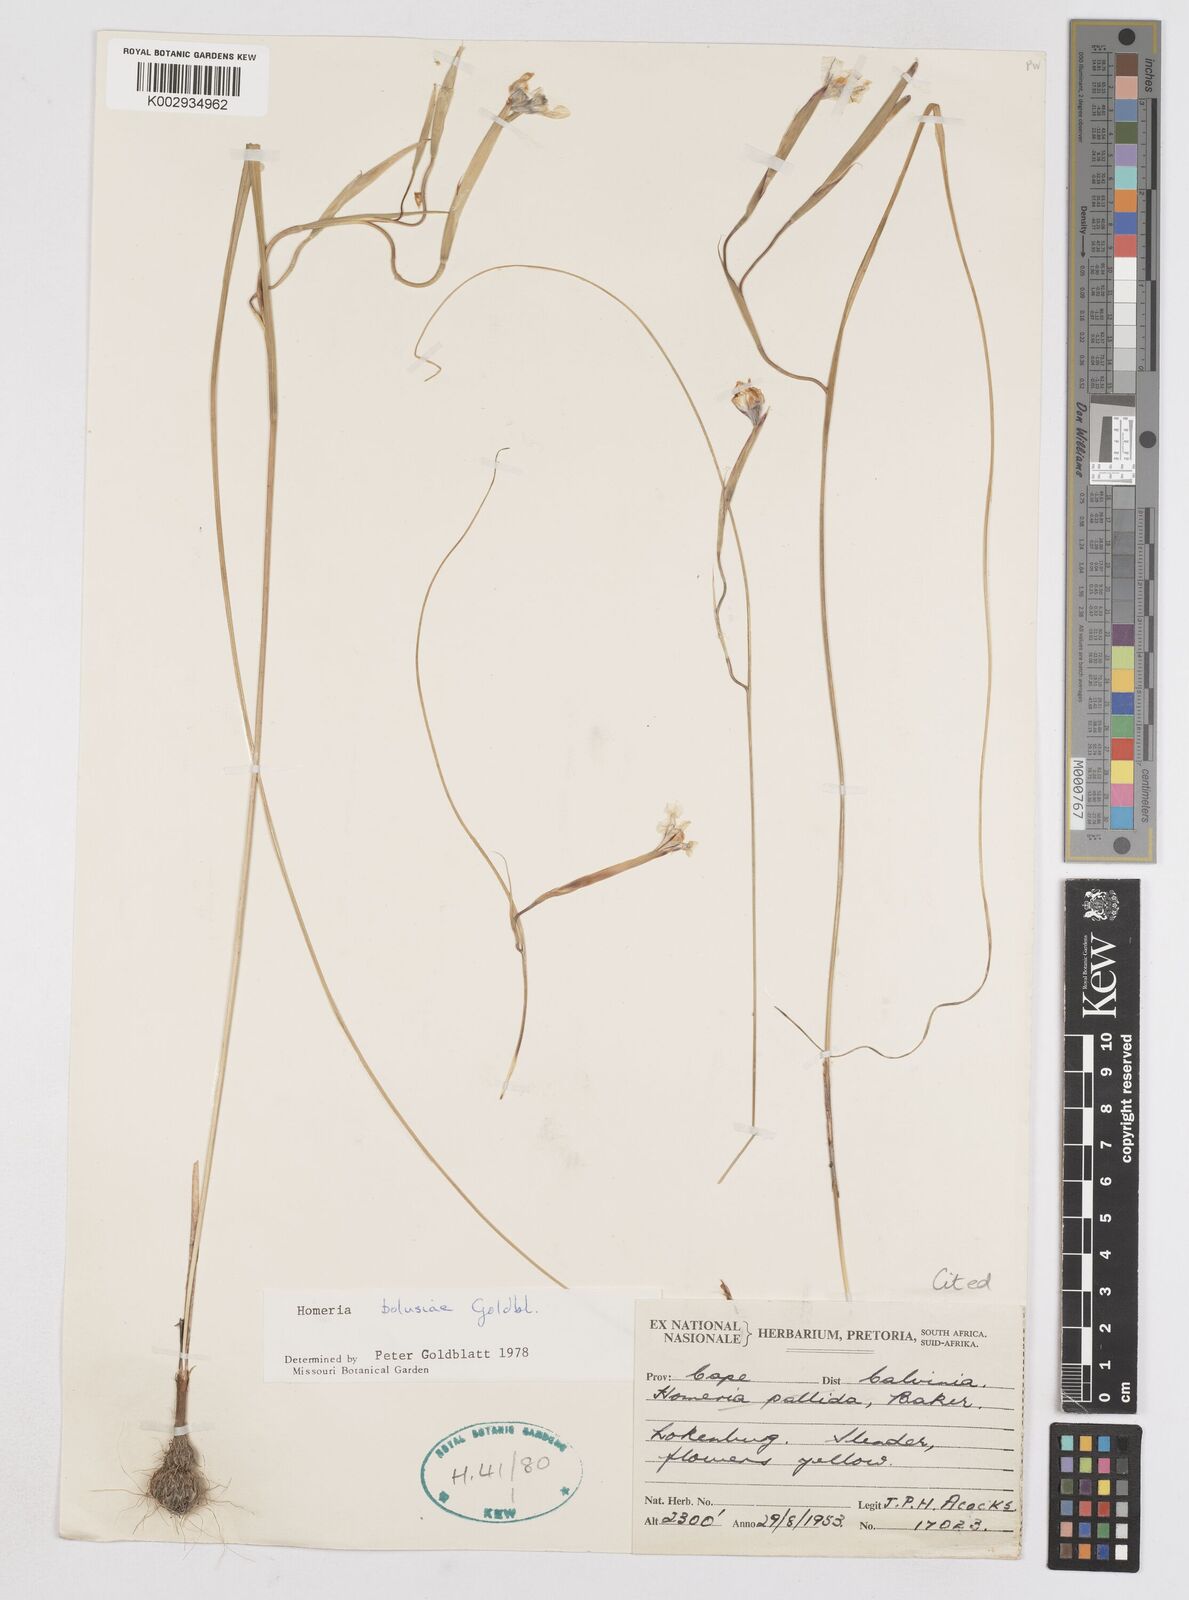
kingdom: Plantae
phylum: Tracheophyta
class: Liliopsida
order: Asparagales
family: Iridaceae
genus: Moraea
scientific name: Moraea bolusii
